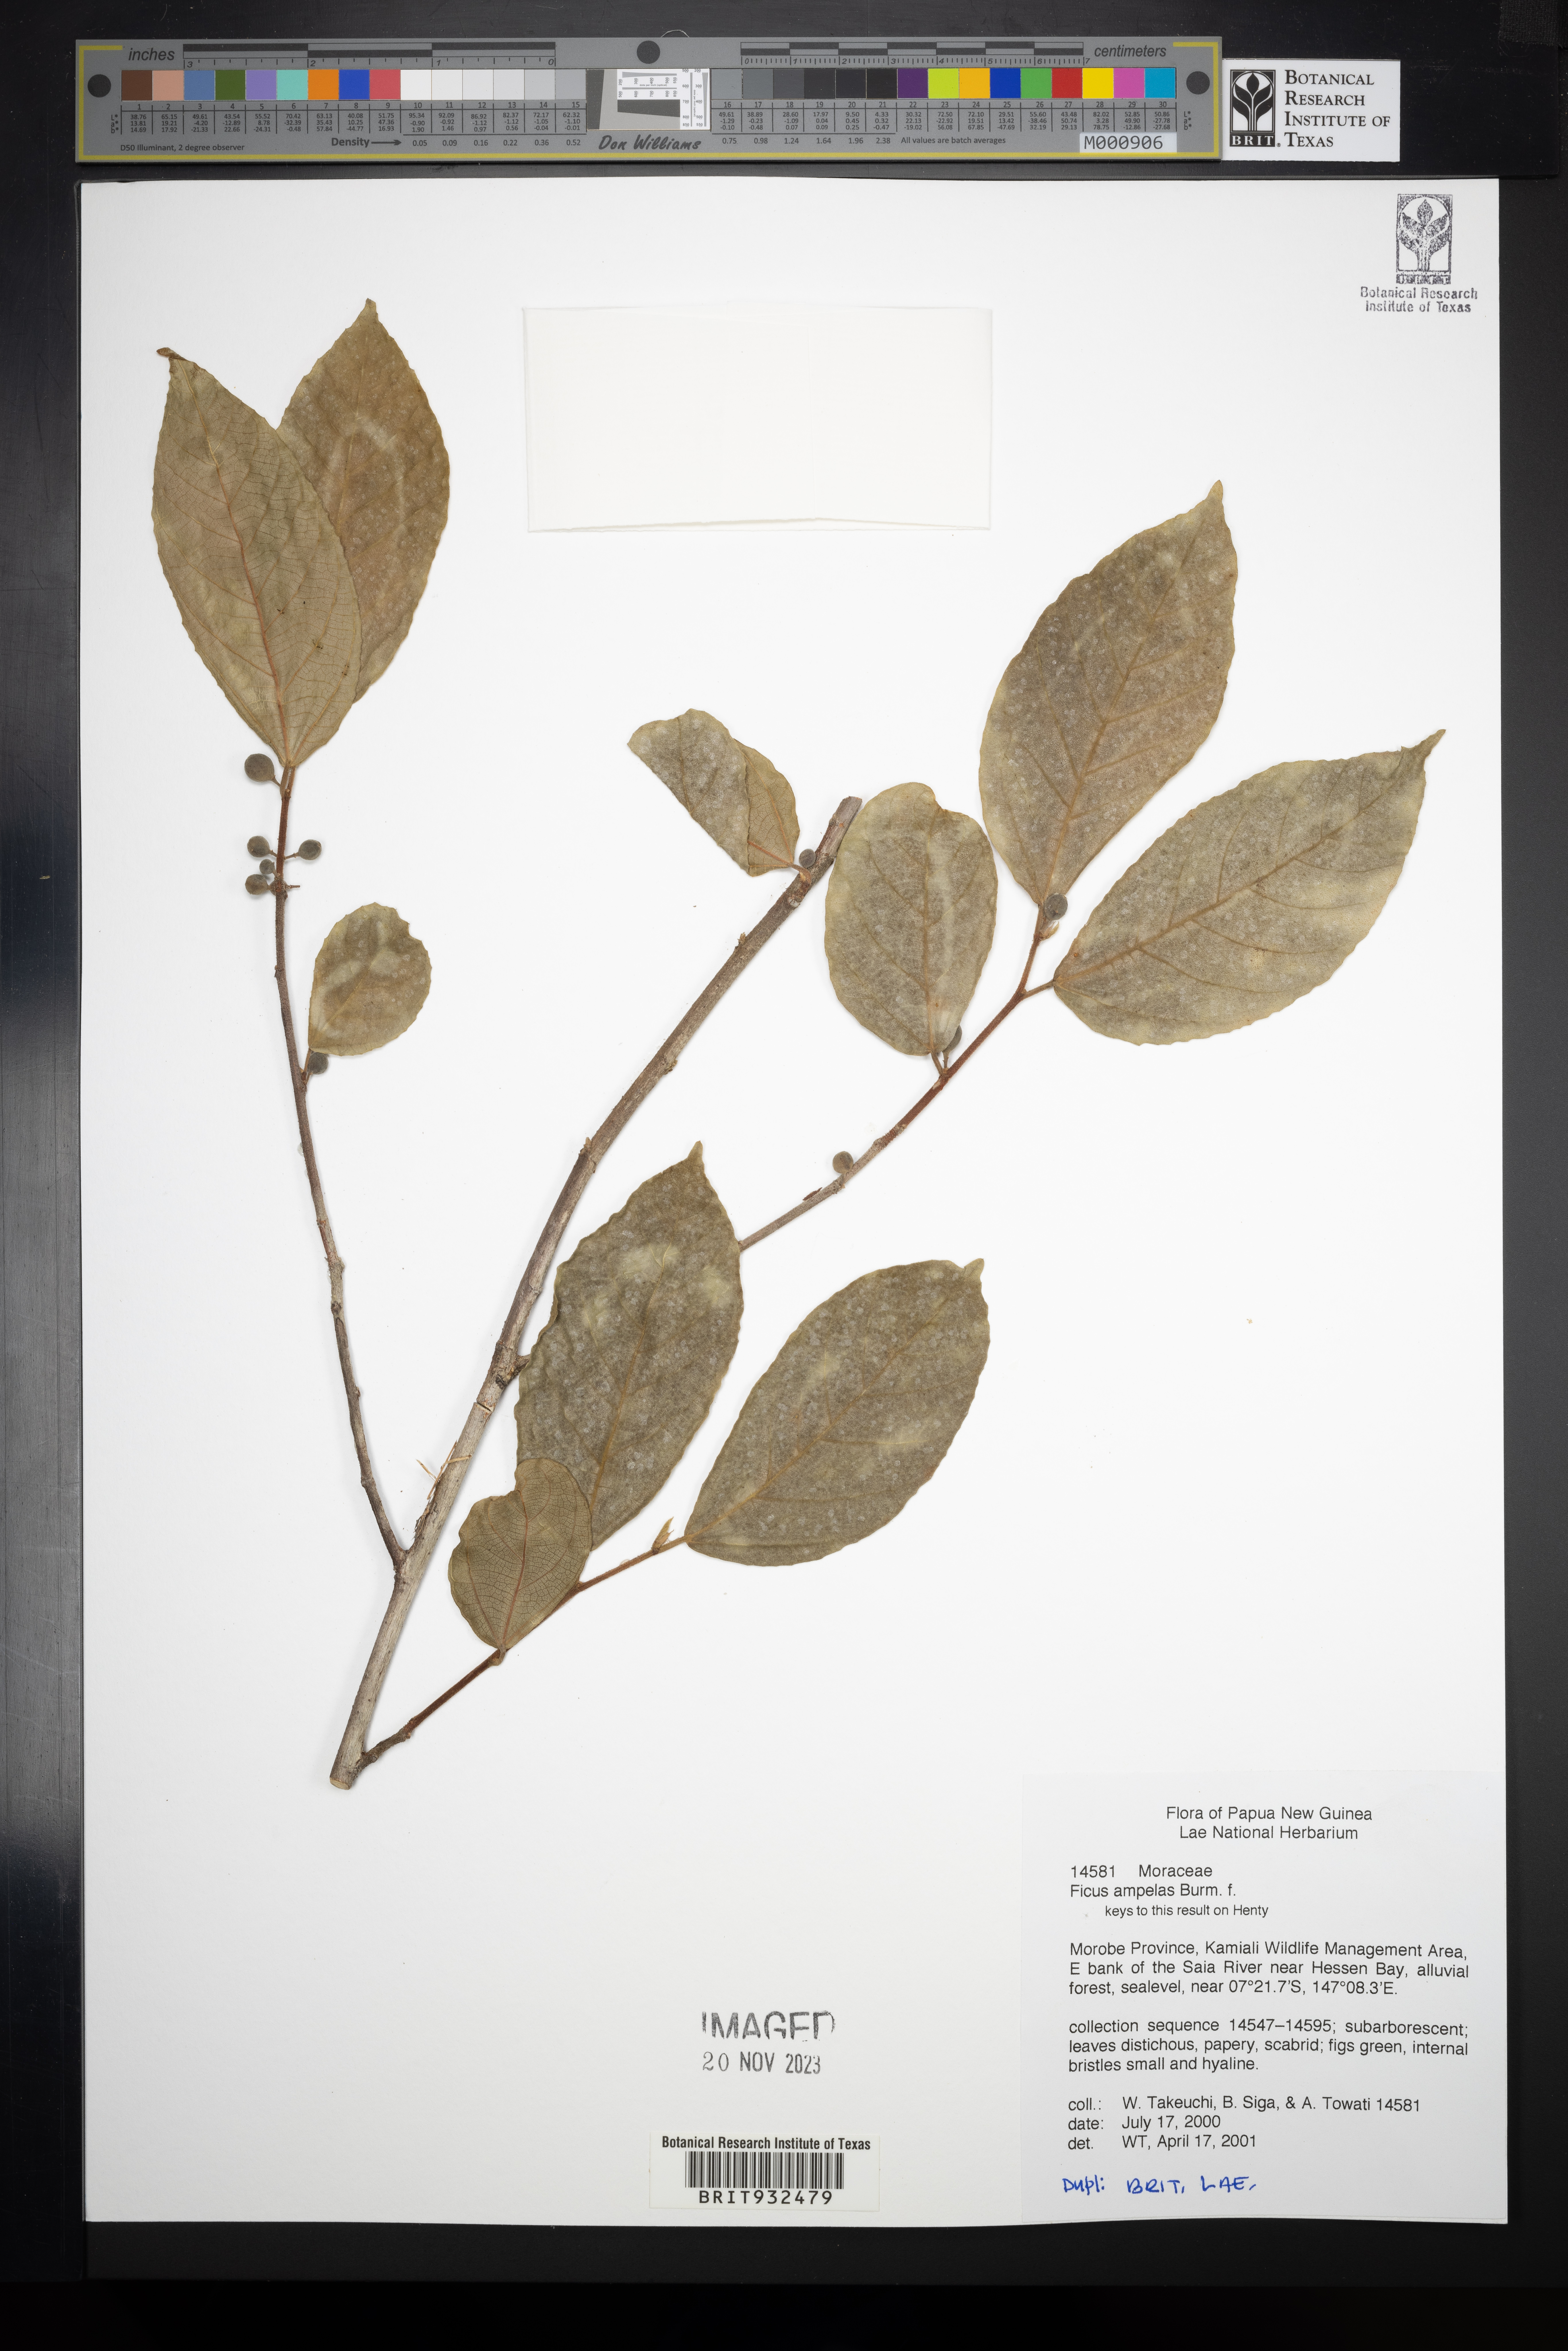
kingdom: Plantae
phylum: Tracheophyta
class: Magnoliopsida
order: Rosales
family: Moraceae
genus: Ficus
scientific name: Ficus ampelos
